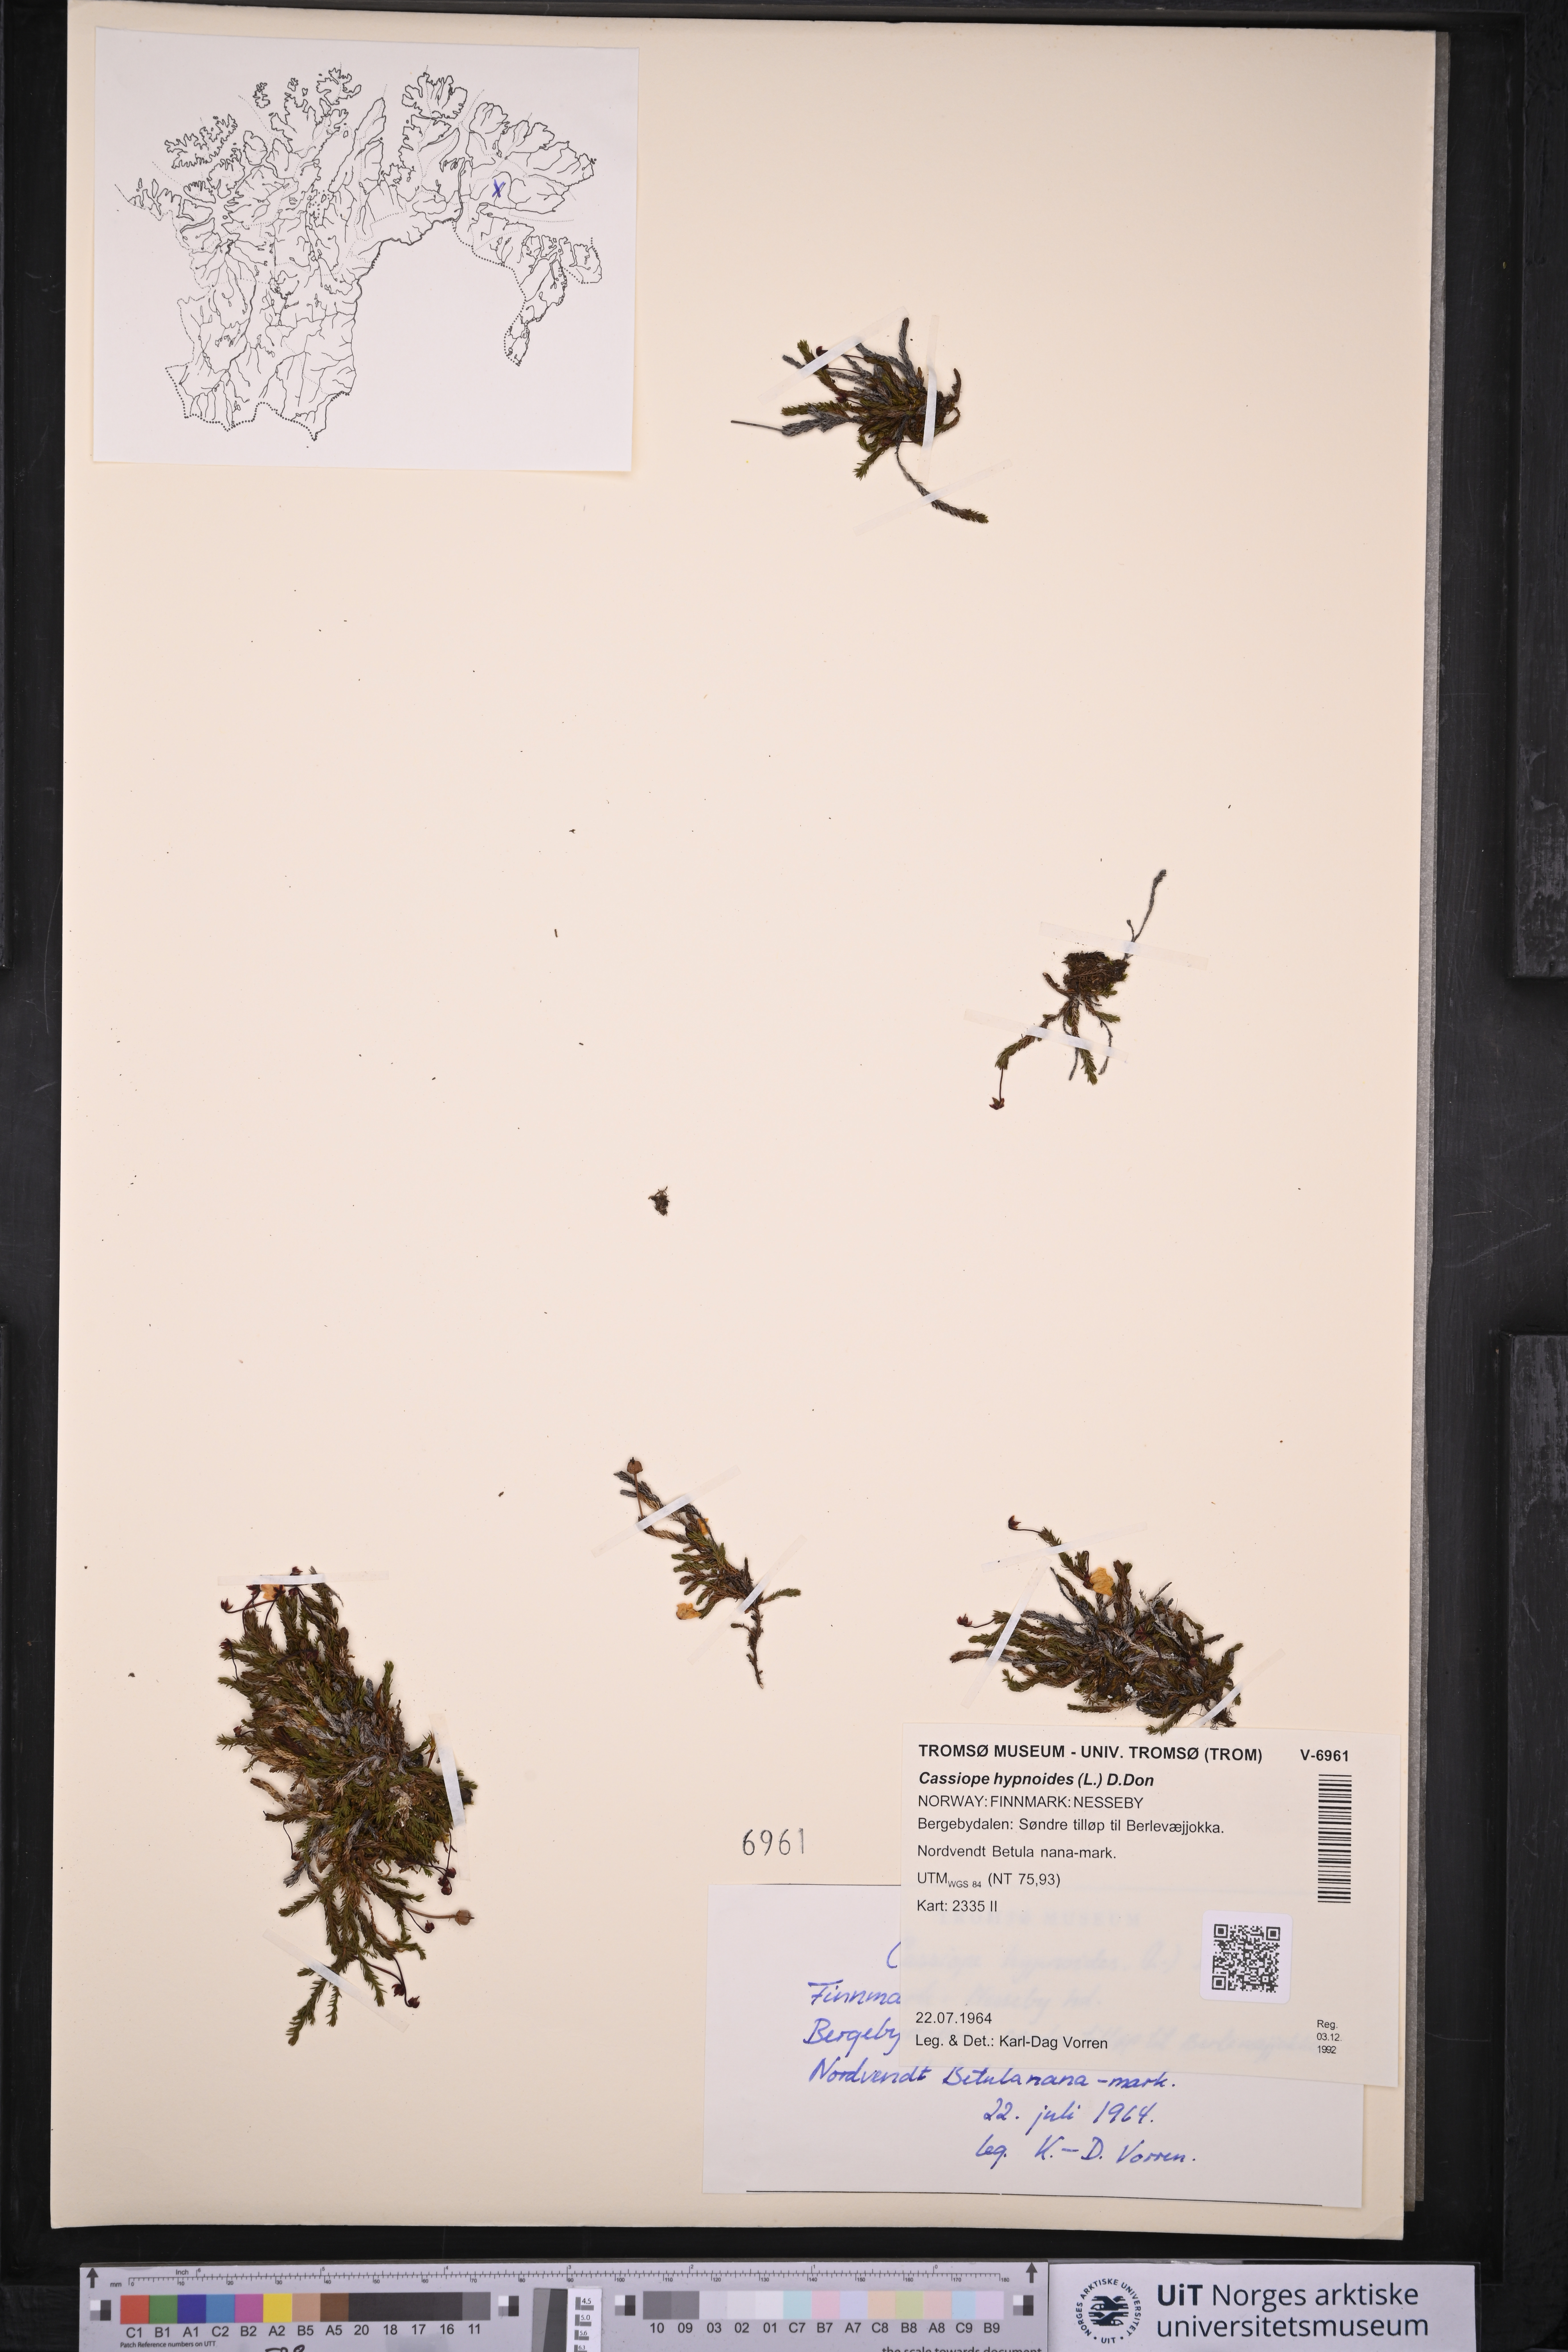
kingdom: Plantae
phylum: Tracheophyta
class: Magnoliopsida
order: Ericales
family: Ericaceae
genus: Harrimanella
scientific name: Harrimanella hypnoides
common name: Moss bell heather
